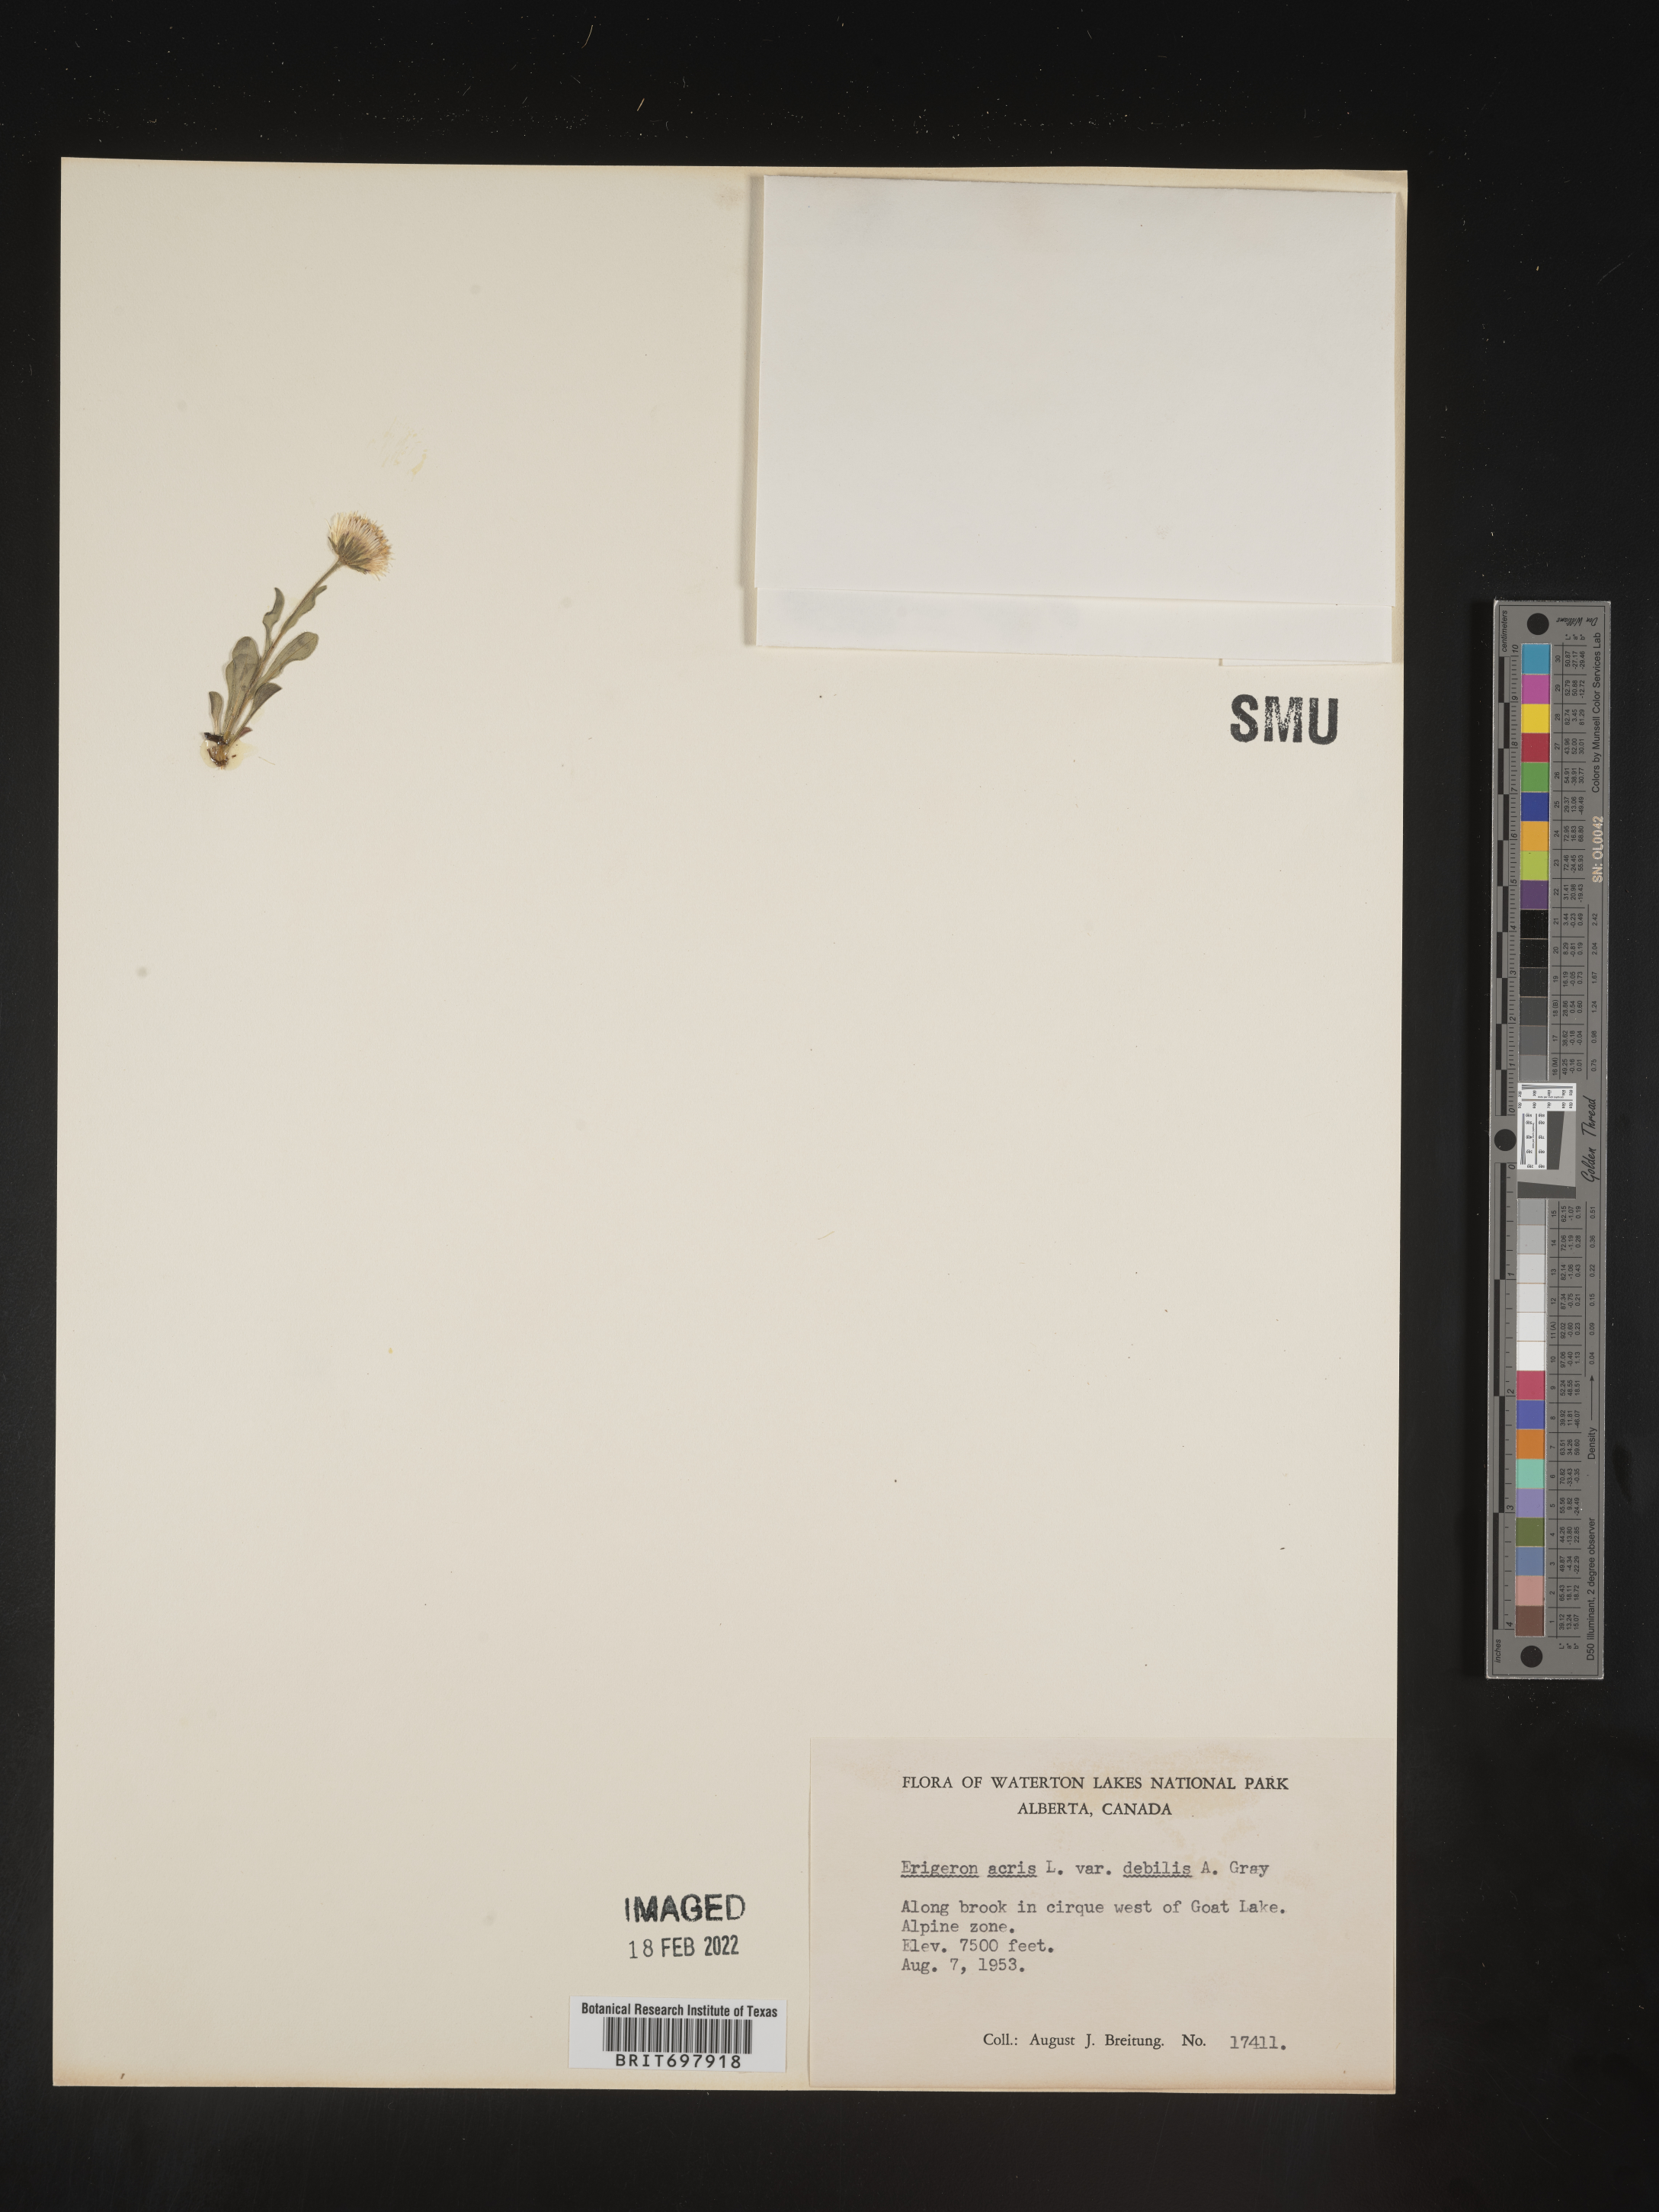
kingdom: Plantae
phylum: Tracheophyta
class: Magnoliopsida
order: Asterales
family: Asteraceae
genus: Erigeron
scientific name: Erigeron nivalis
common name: Snow fleabane
